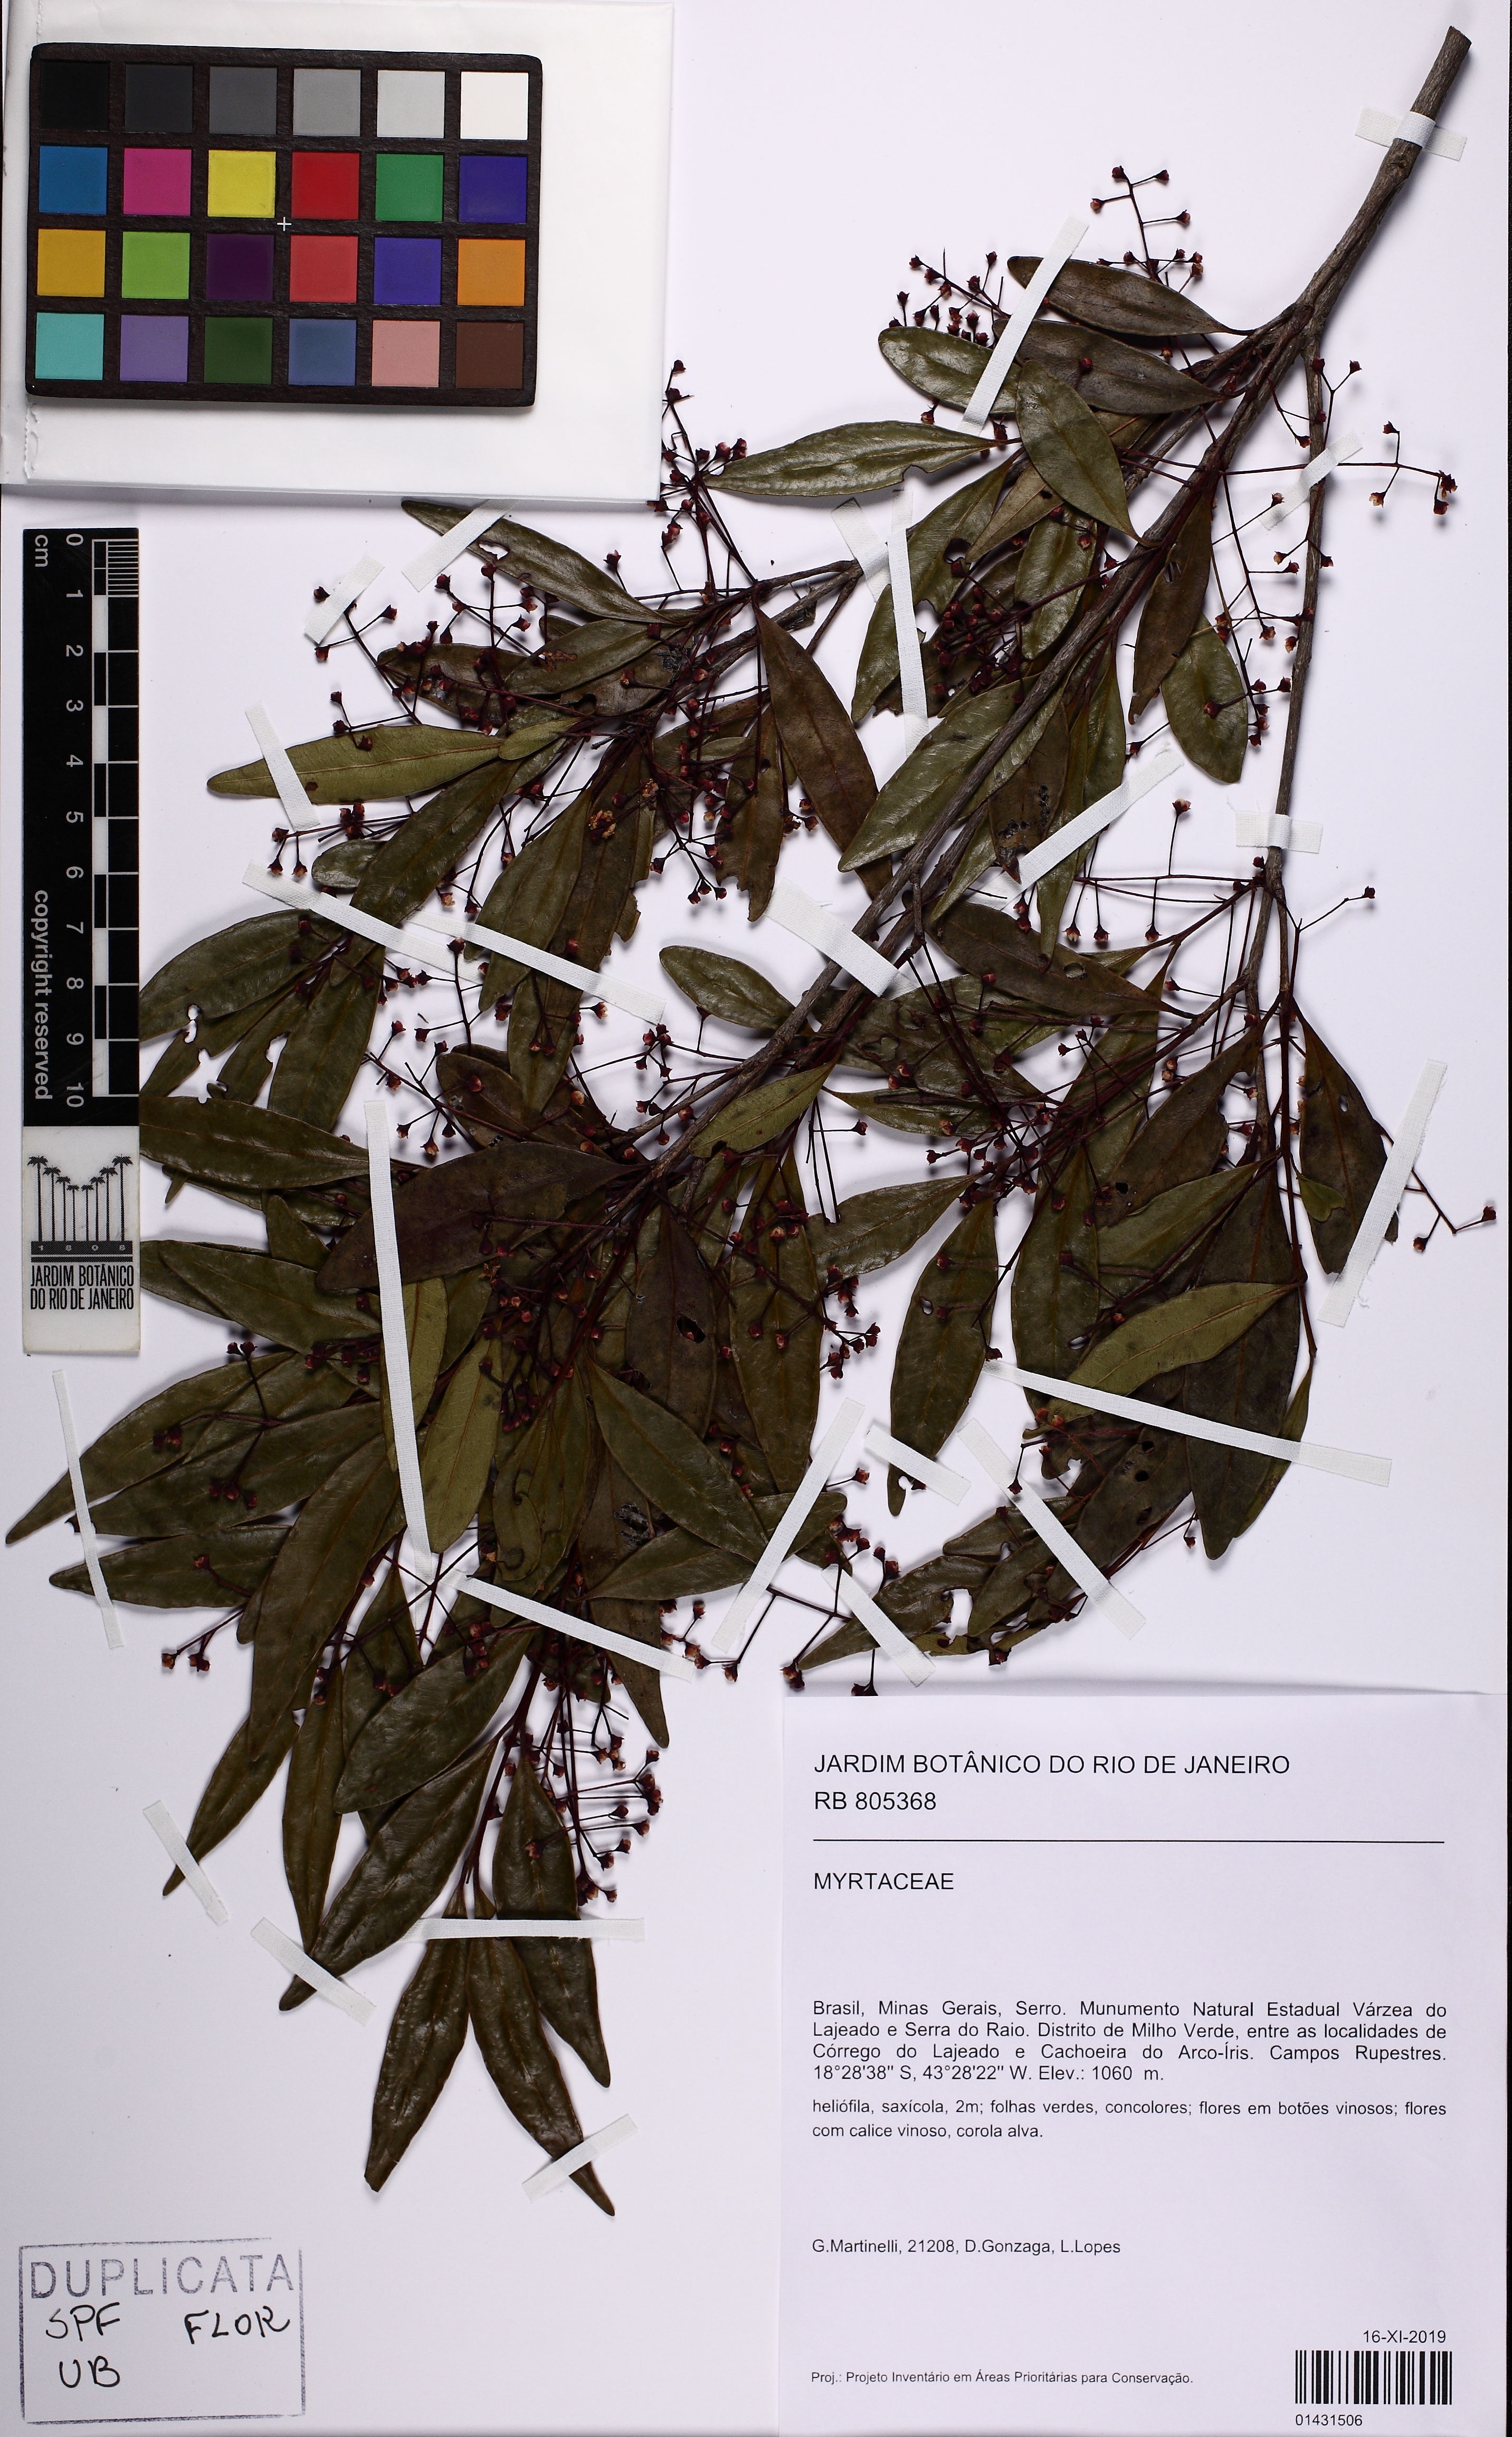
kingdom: Plantae
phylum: Tracheophyta
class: Magnoliopsida
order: Myrtales
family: Myrtaceae
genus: Myrcia
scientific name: Myrcia guianensis
